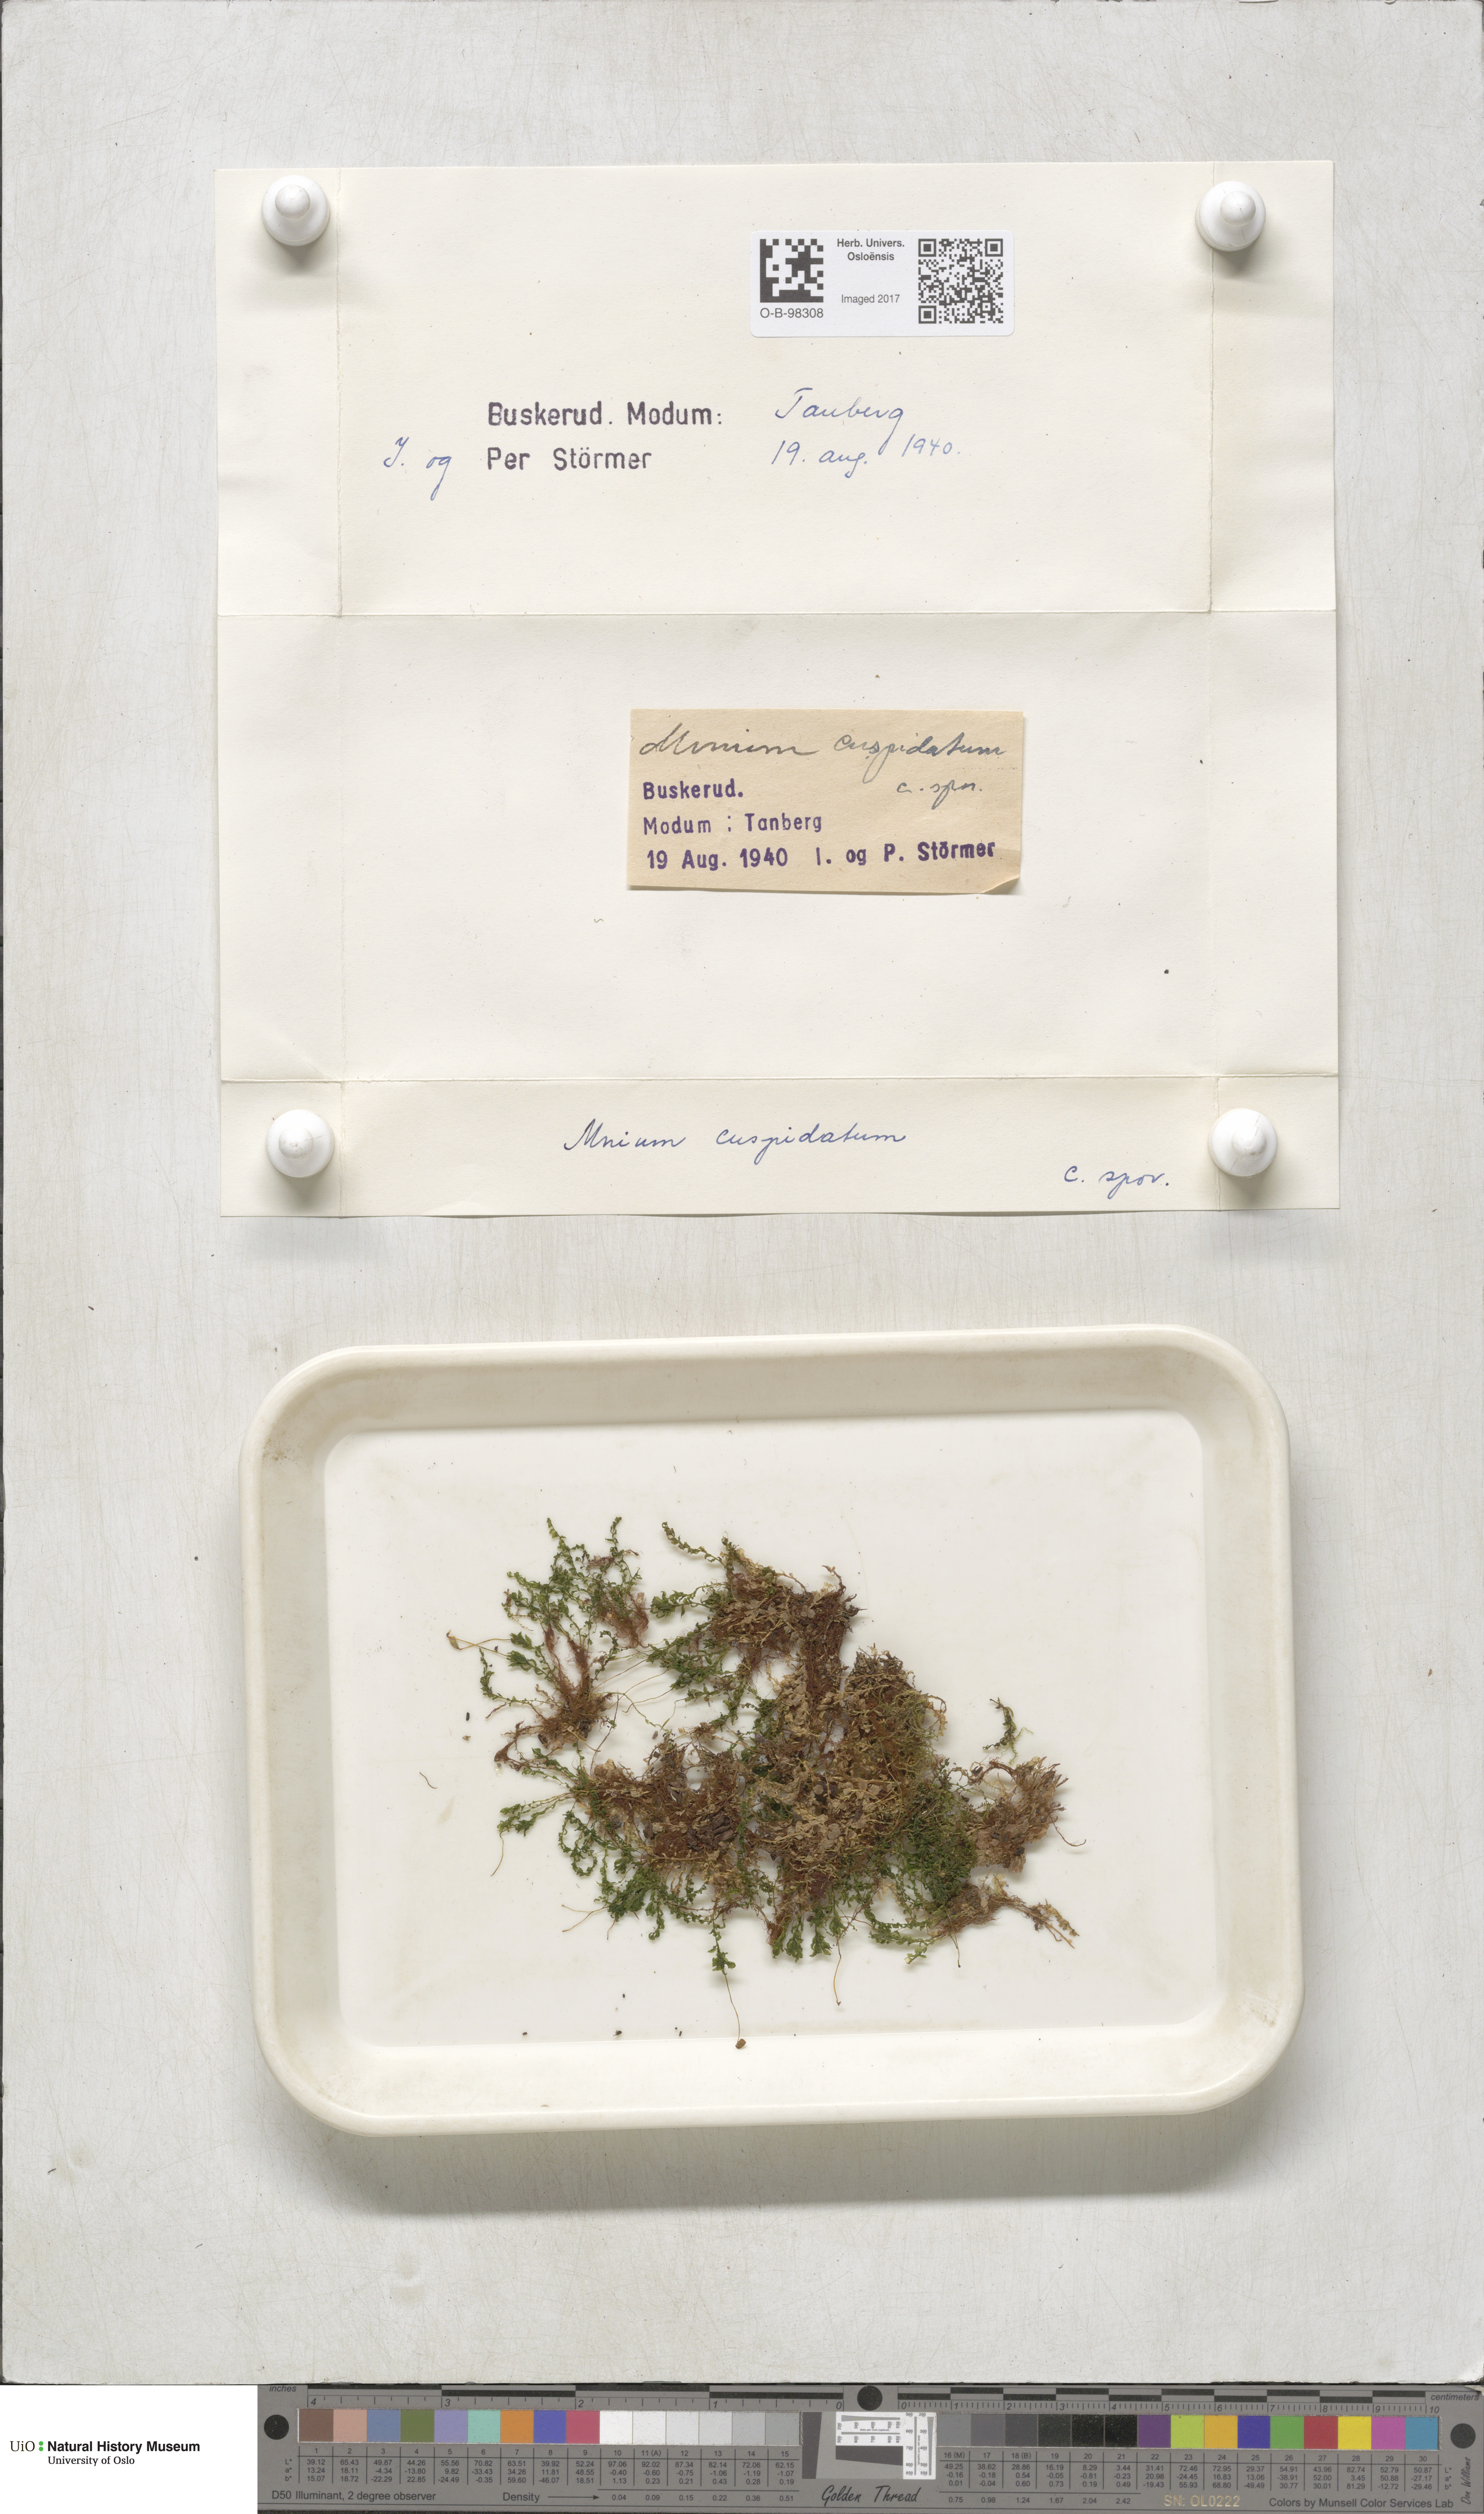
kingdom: Plantae
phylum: Bryophyta
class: Bryopsida
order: Bryales
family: Mniaceae
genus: Plagiomnium
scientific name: Plagiomnium cuspidatum
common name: Woodsy leafy moss
